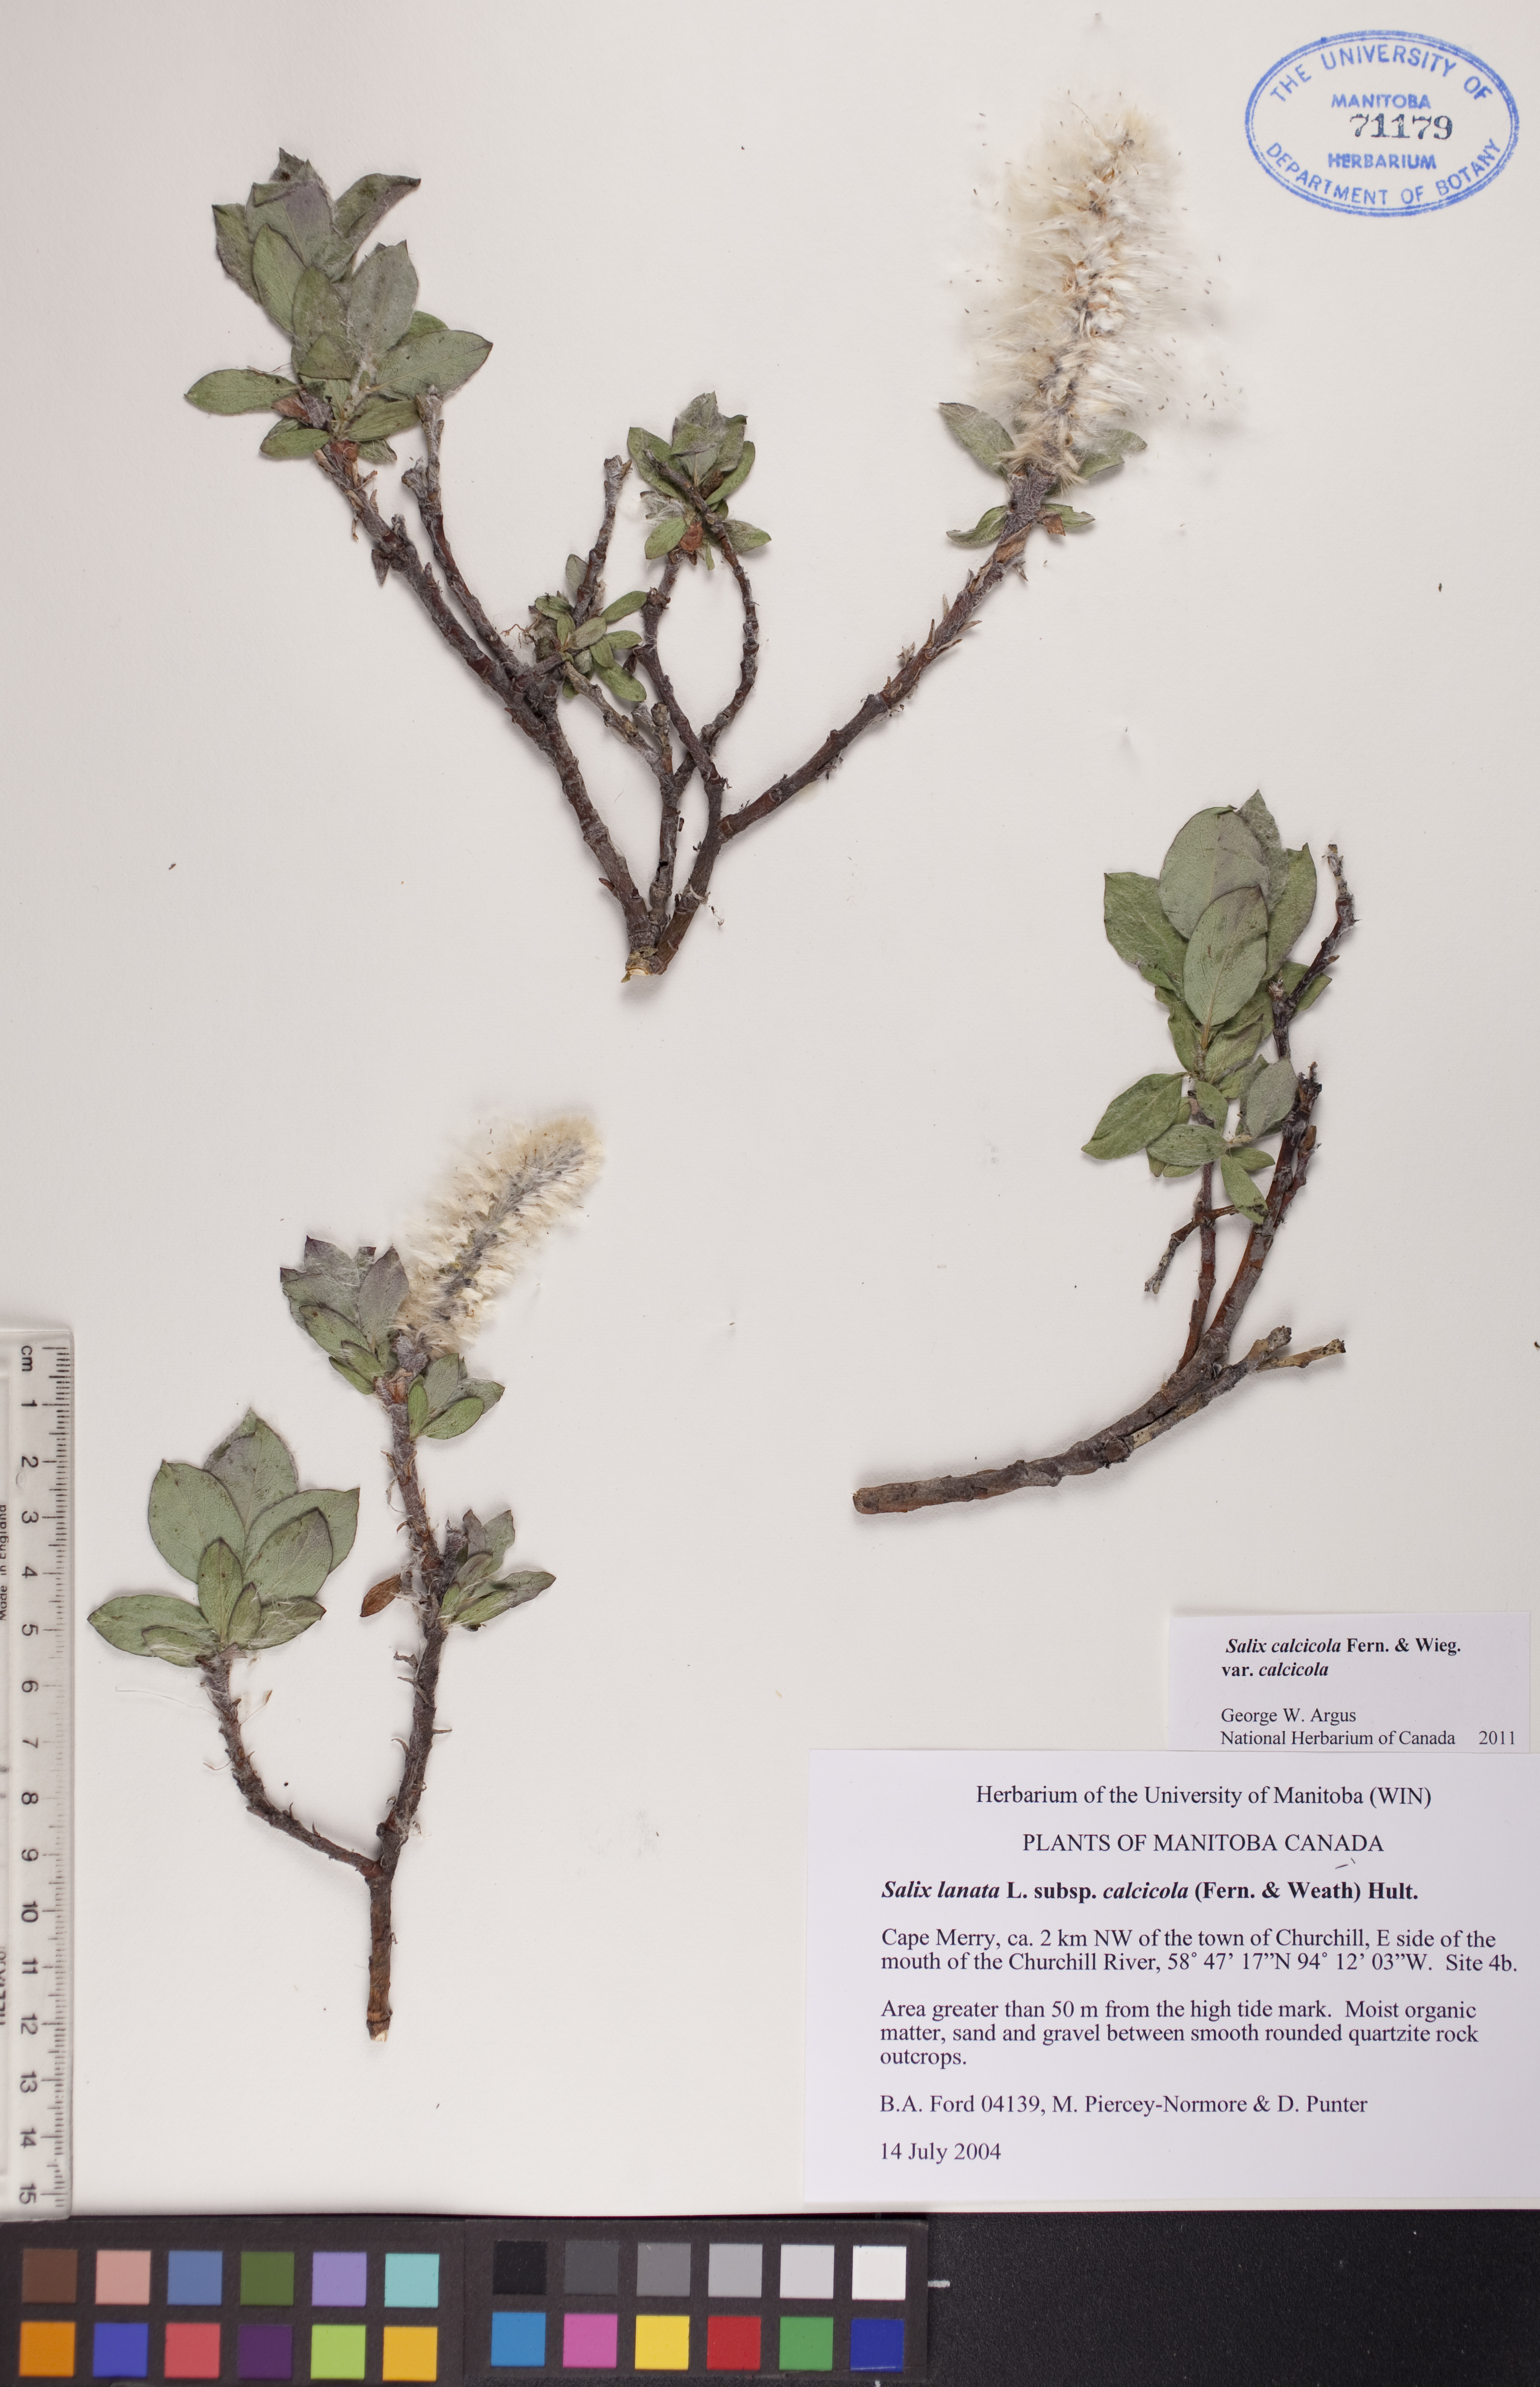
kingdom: Plantae
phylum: Tracheophyta
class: Magnoliopsida
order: Malpighiales
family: Salicaceae
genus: Salix
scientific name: Salix calcicola
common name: Calcareous willow
